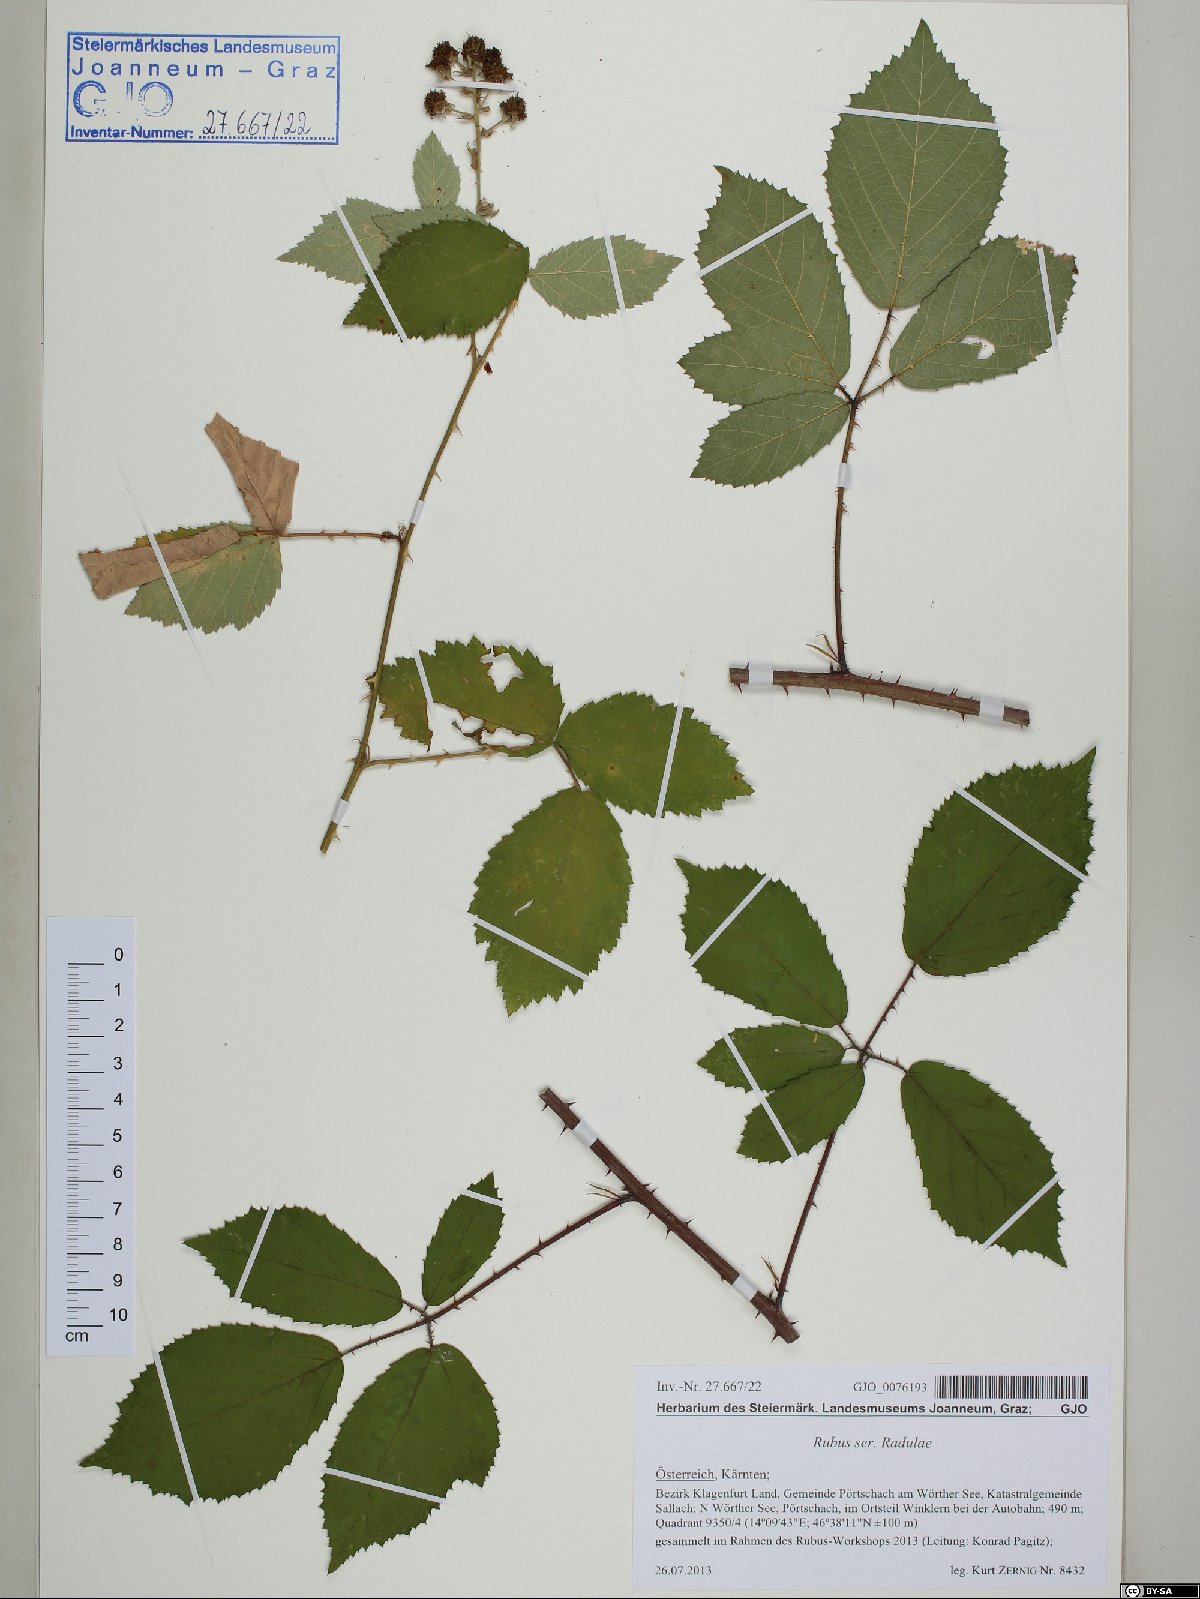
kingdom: Plantae
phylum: Tracheophyta
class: Magnoliopsida
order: Rosales
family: Rosaceae
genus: Rubus
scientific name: Rubus
